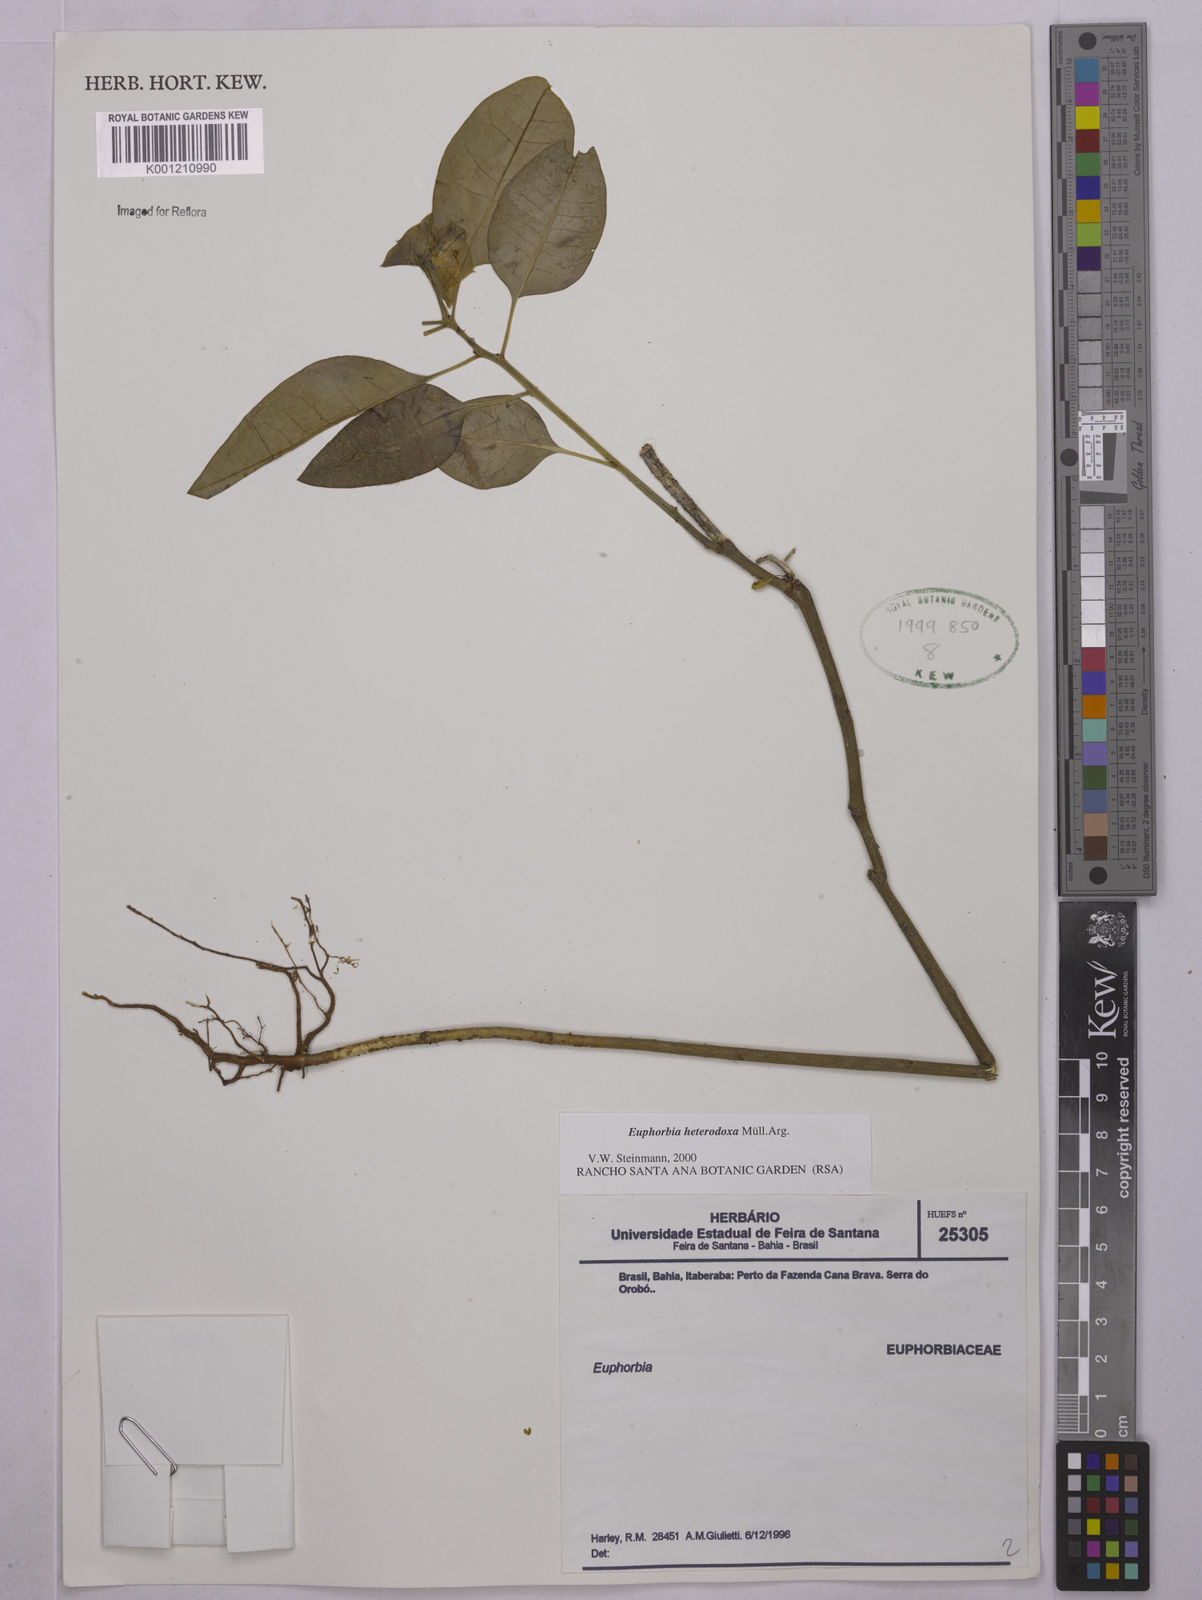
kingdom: Plantae
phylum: Tracheophyta
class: Magnoliopsida
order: Malpighiales
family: Euphorbiaceae
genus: Euphorbia
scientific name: Euphorbia
